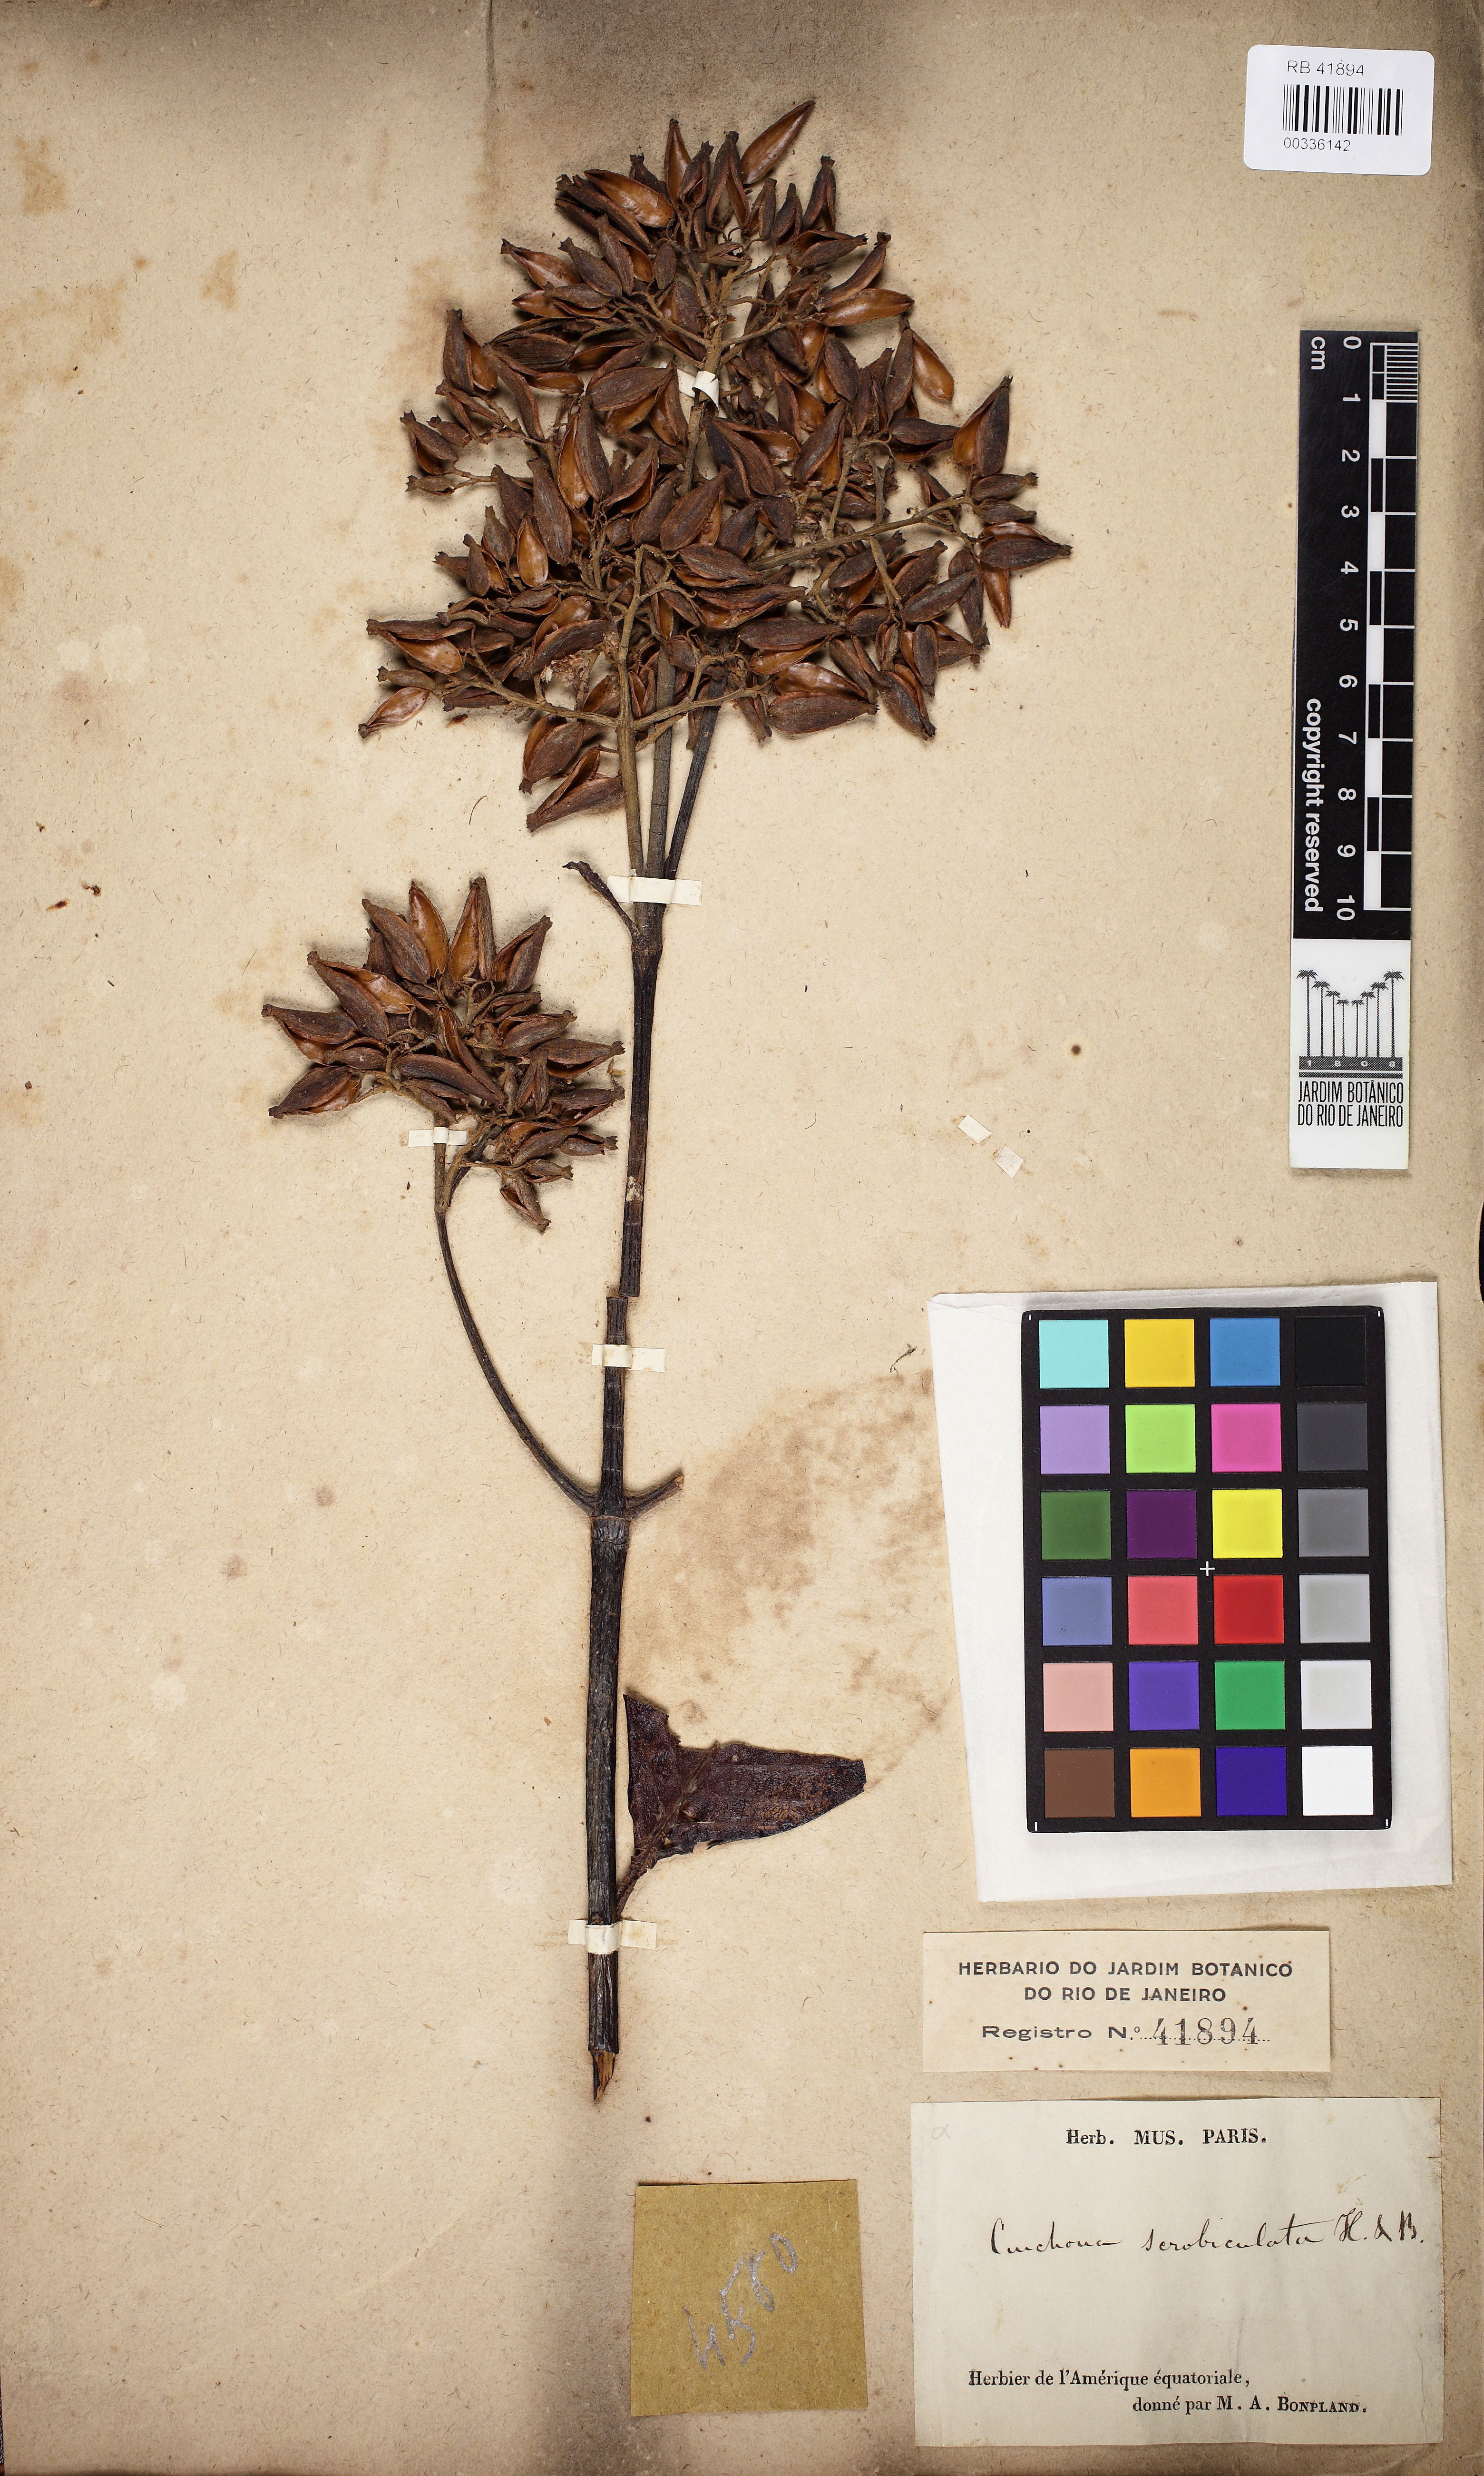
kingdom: Plantae
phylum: Tracheophyta
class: Magnoliopsida
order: Gentianales
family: Rubiaceae
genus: Cinchona
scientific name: Cinchona scrobiculata
